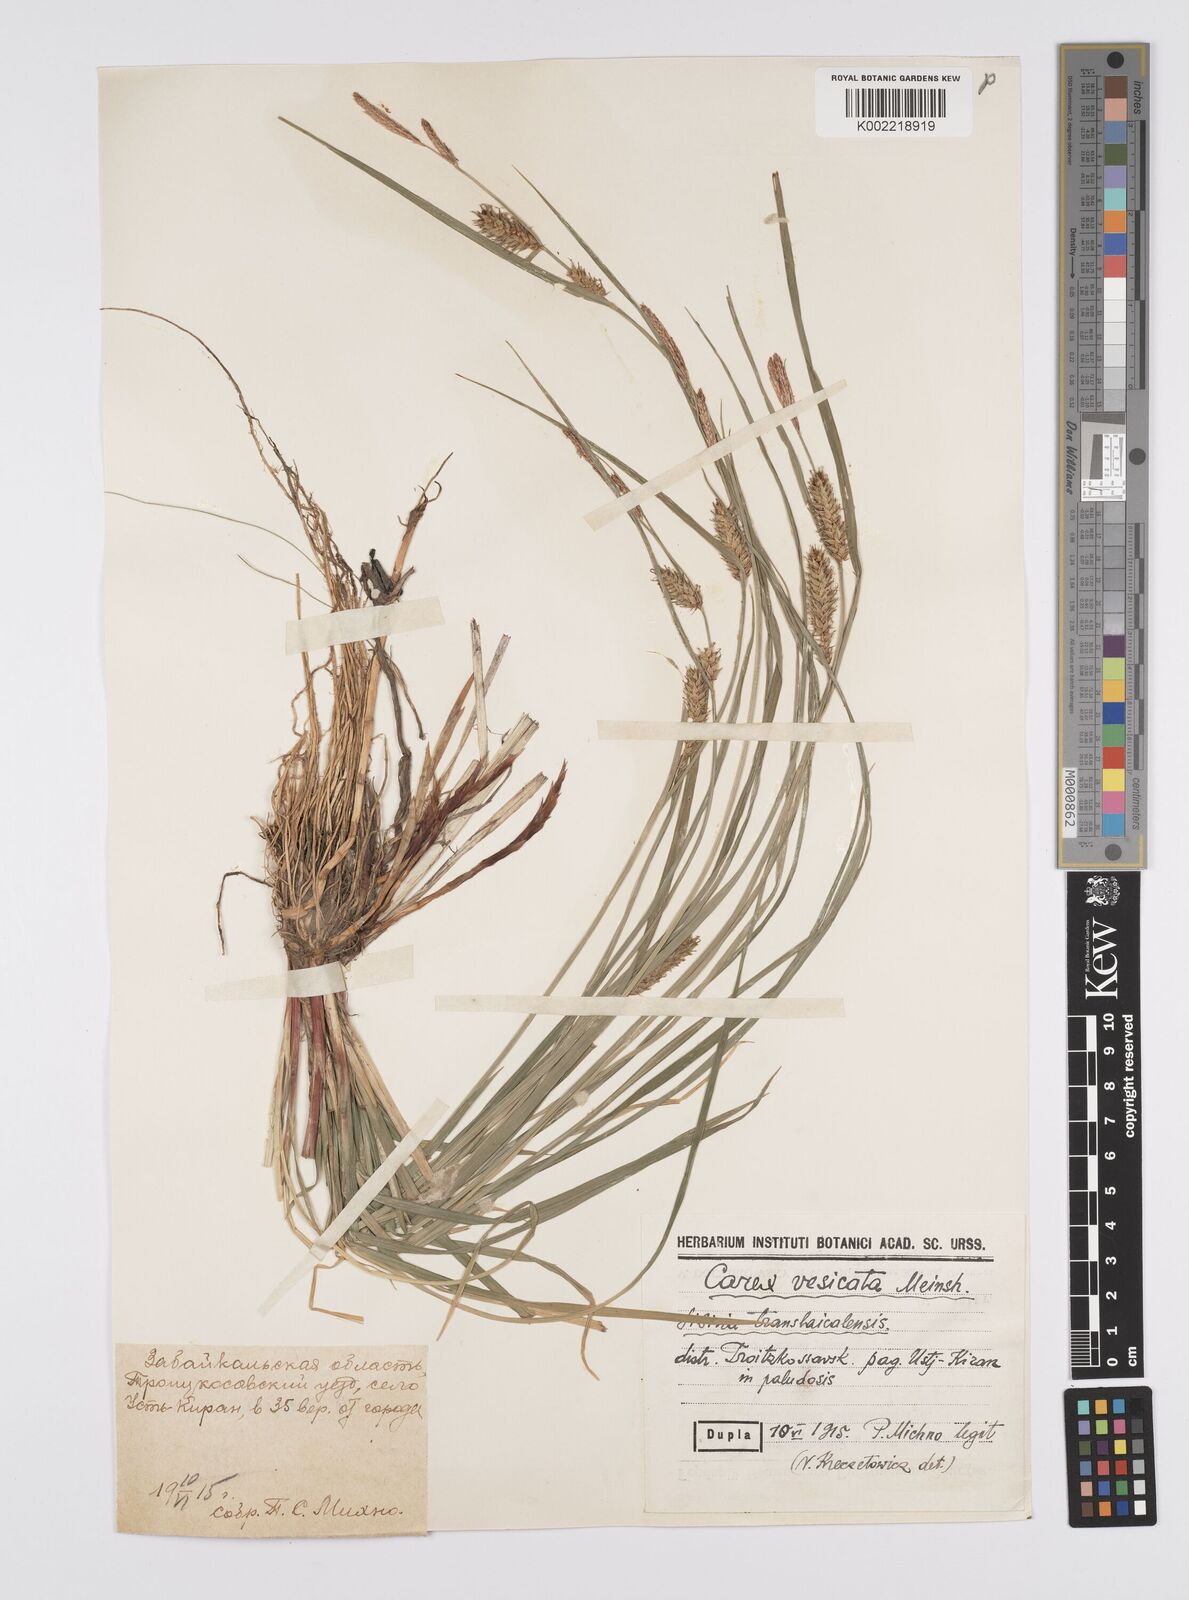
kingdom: Plantae
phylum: Tracheophyta
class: Liliopsida
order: Poales
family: Cyperaceae
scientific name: Cyperaceae
